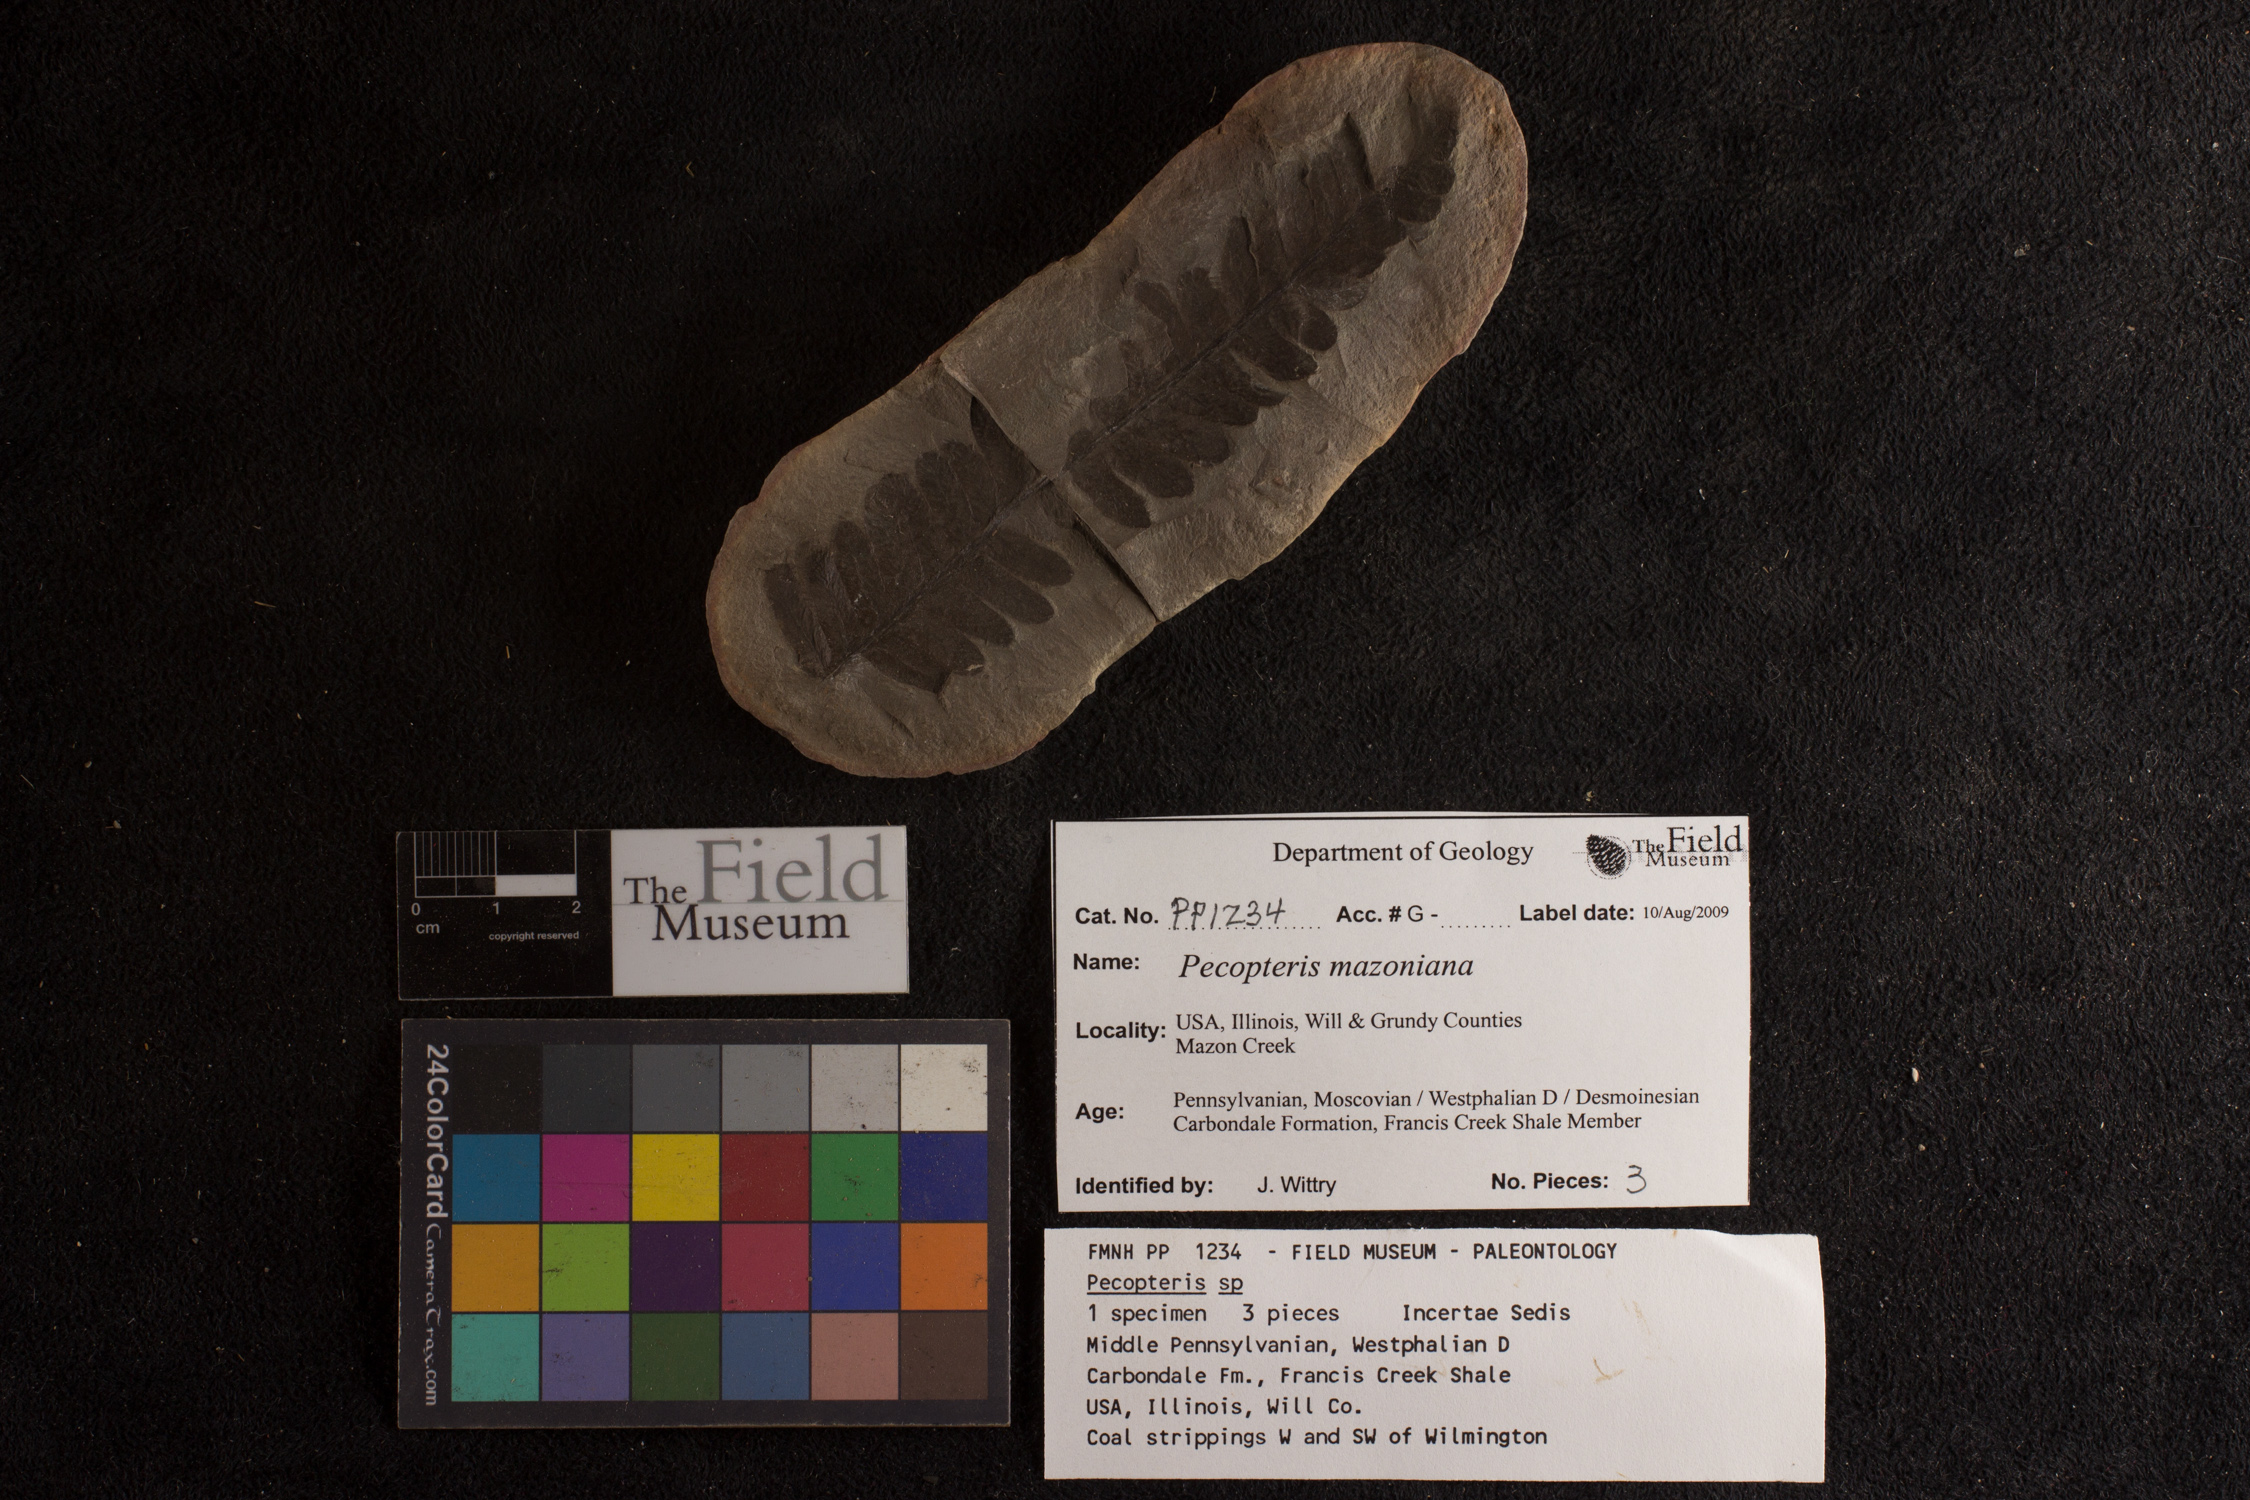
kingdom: Plantae
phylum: Tracheophyta
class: Polypodiopsida
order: Marattiales
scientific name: Marattiales
